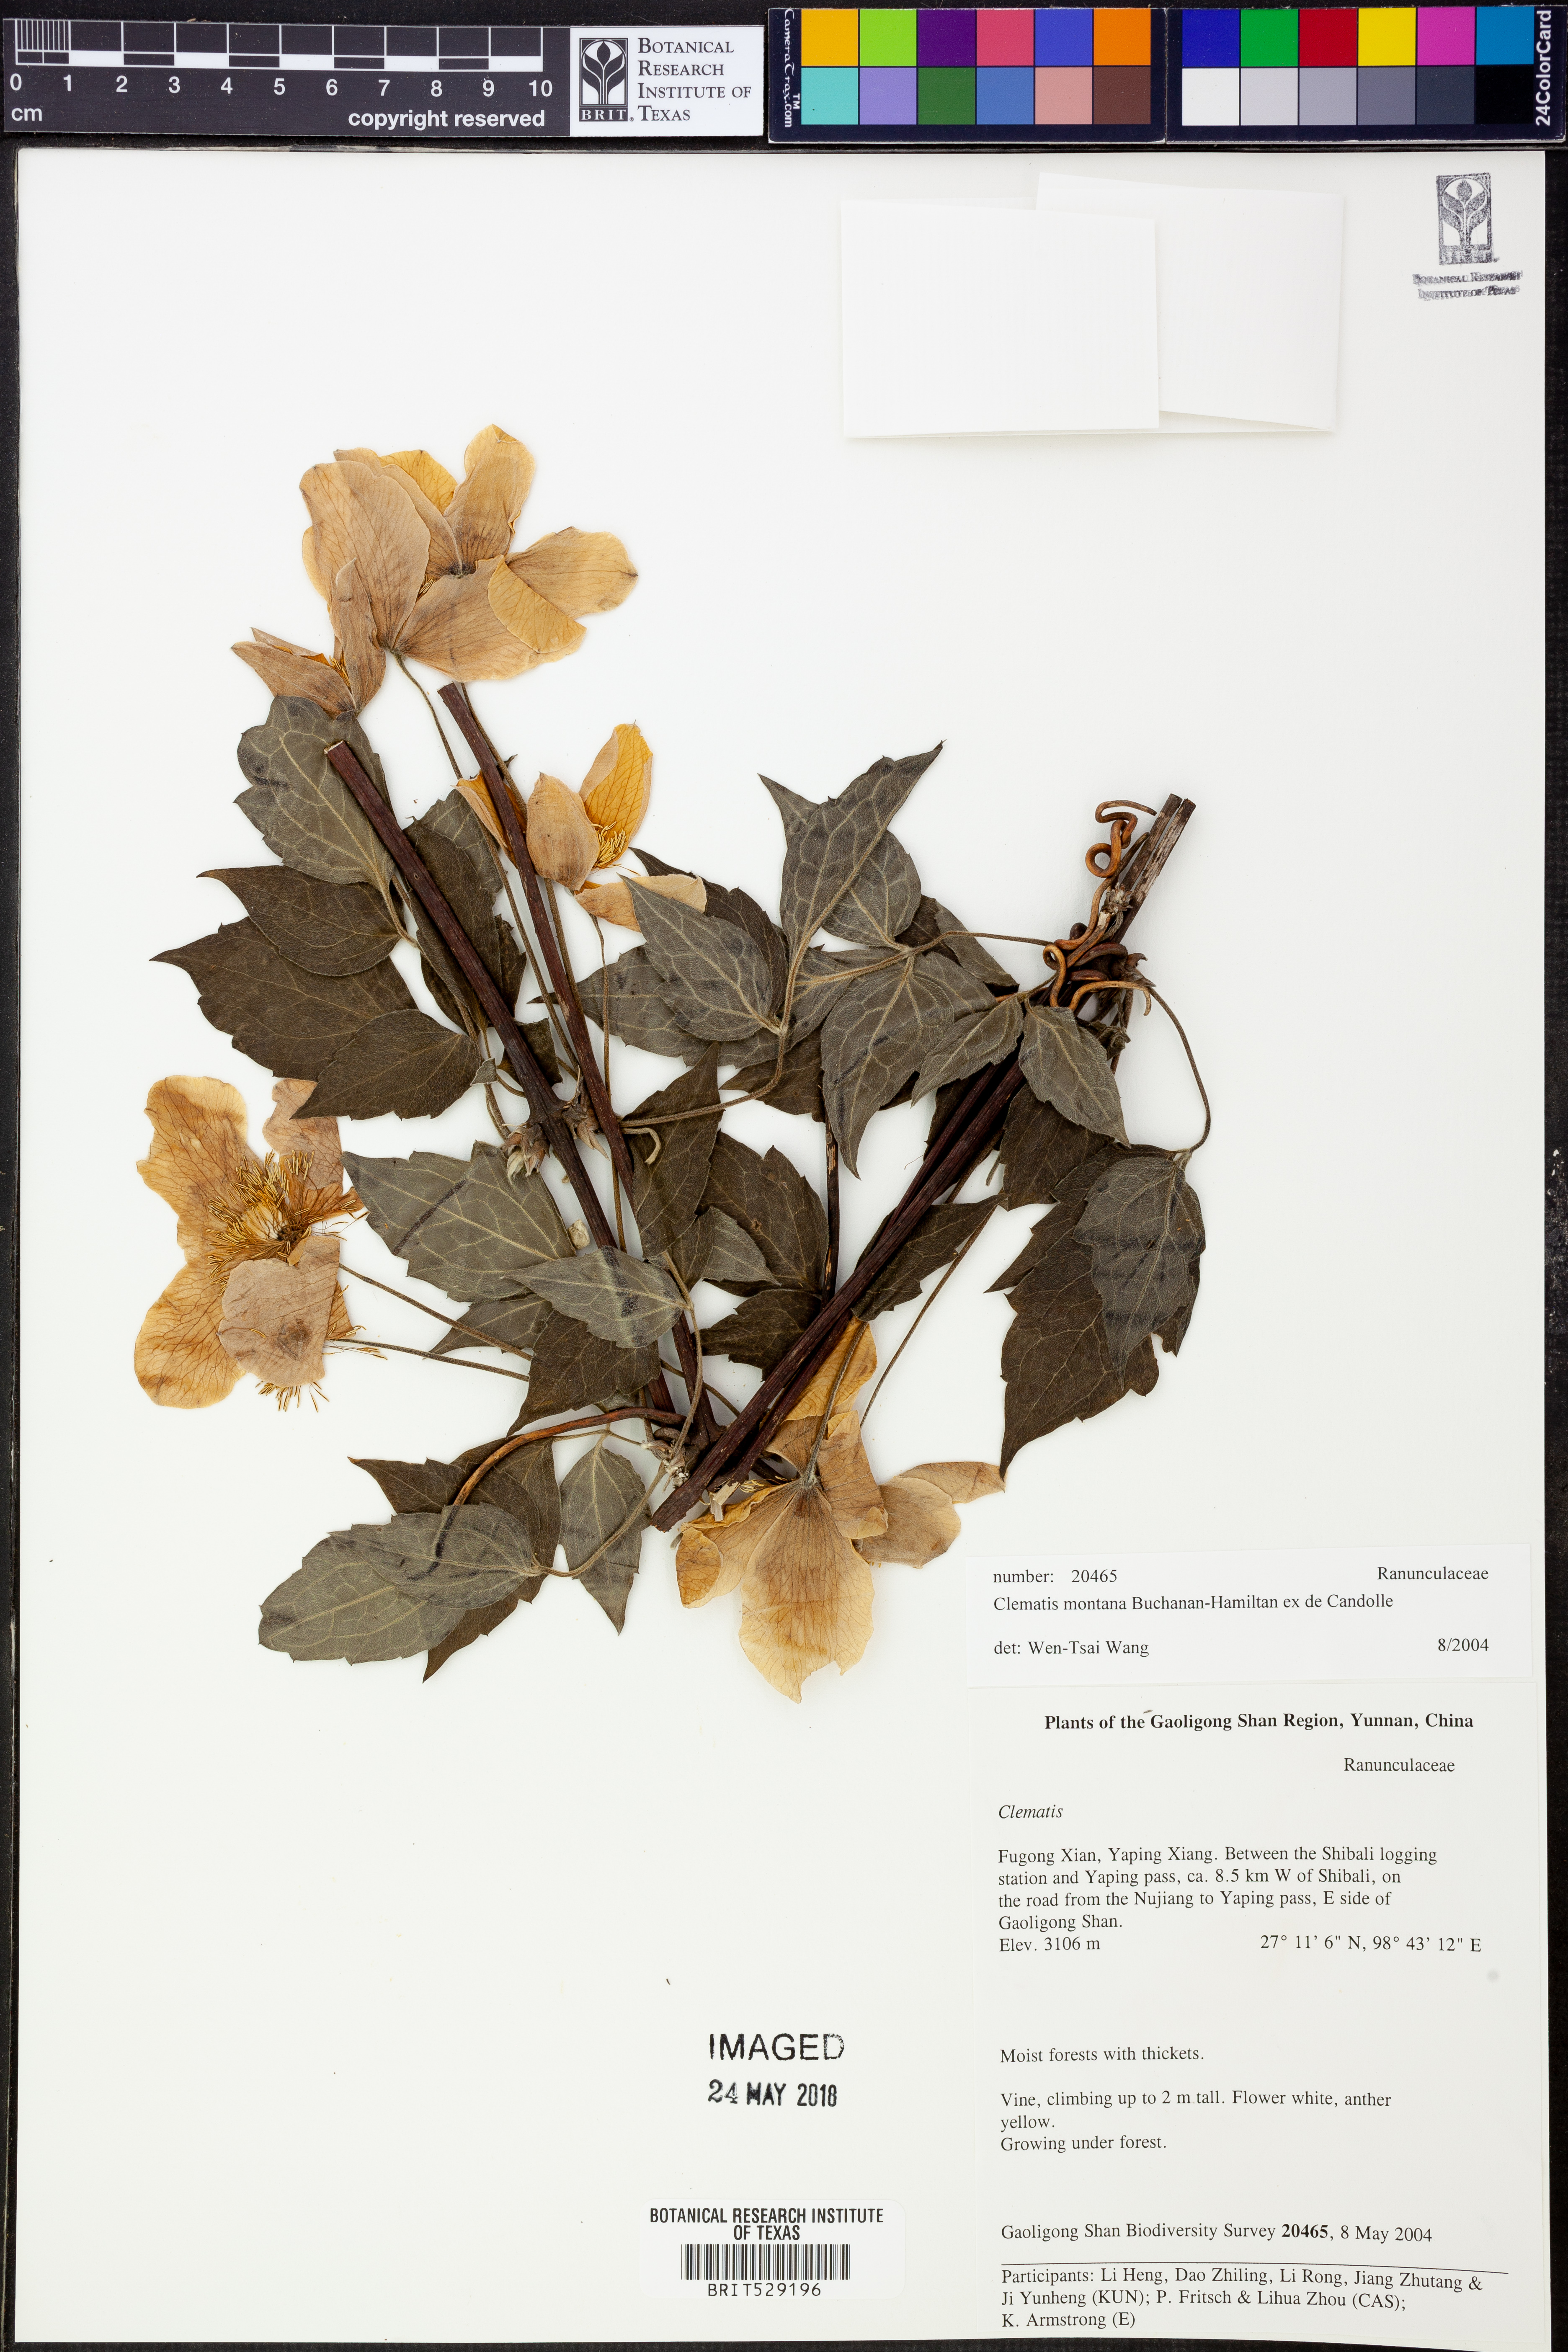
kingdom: Plantae
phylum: Tracheophyta
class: Magnoliopsida
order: Ranunculales
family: Ranunculaceae
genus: Clematis
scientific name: Clematis montana
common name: Himalayan clematis
